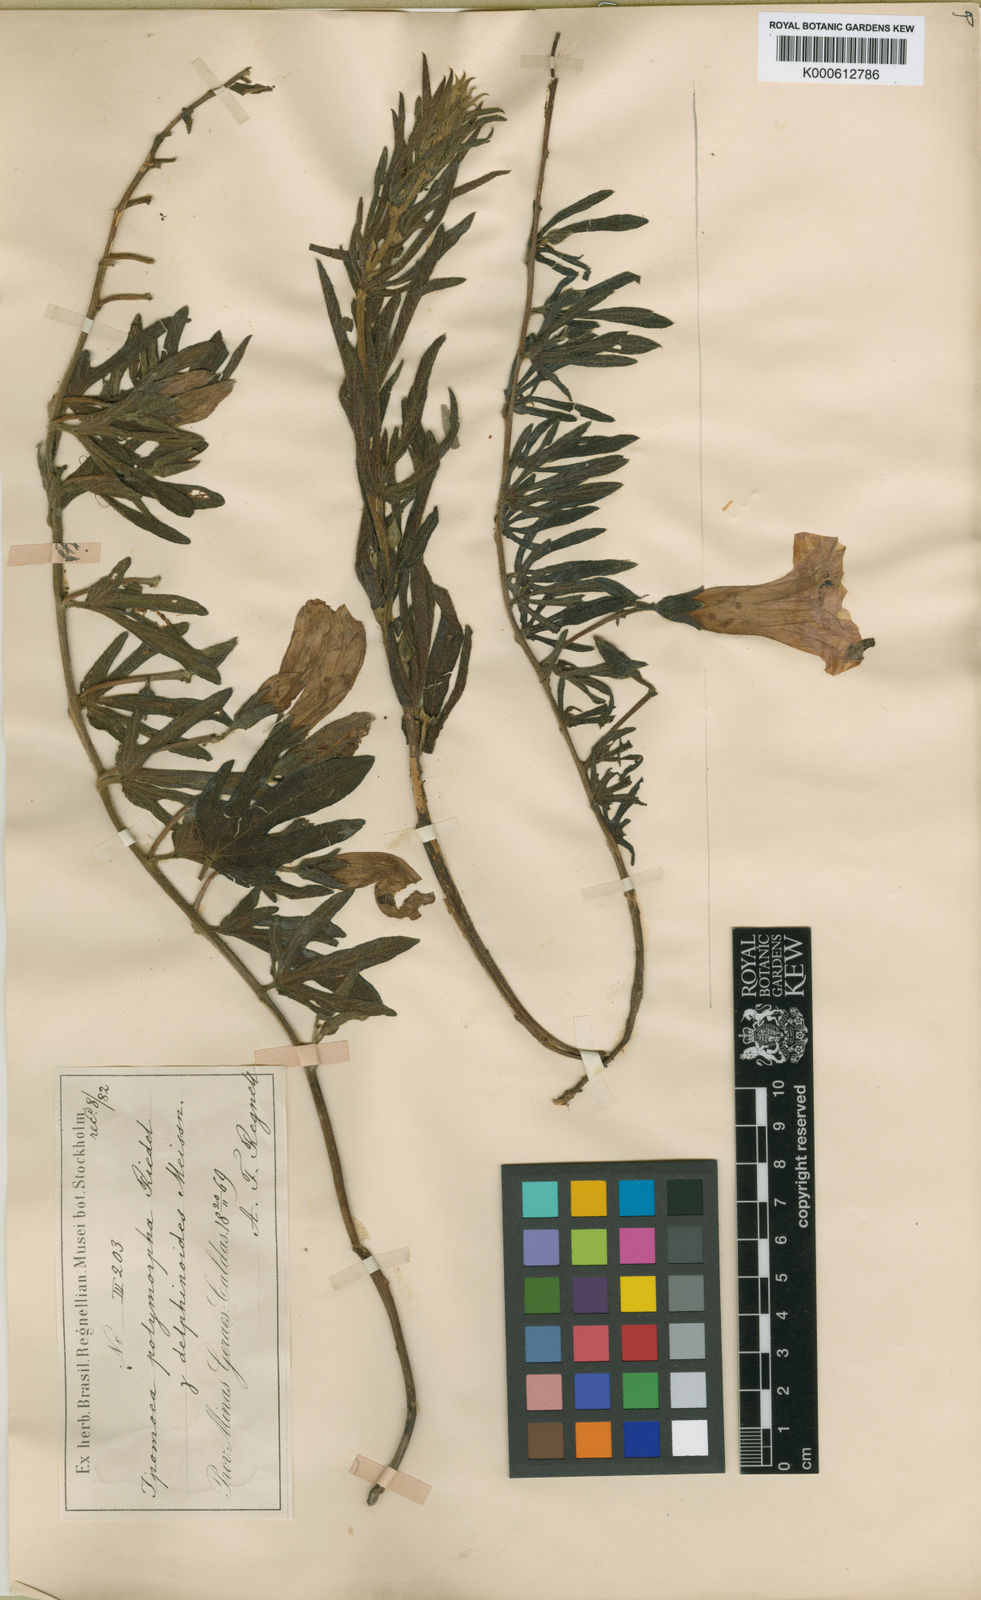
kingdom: Plantae
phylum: Tracheophyta
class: Magnoliopsida
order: Solanales
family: Convolvulaceae
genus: Ipomoea
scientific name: Ipomoea delphinioides
